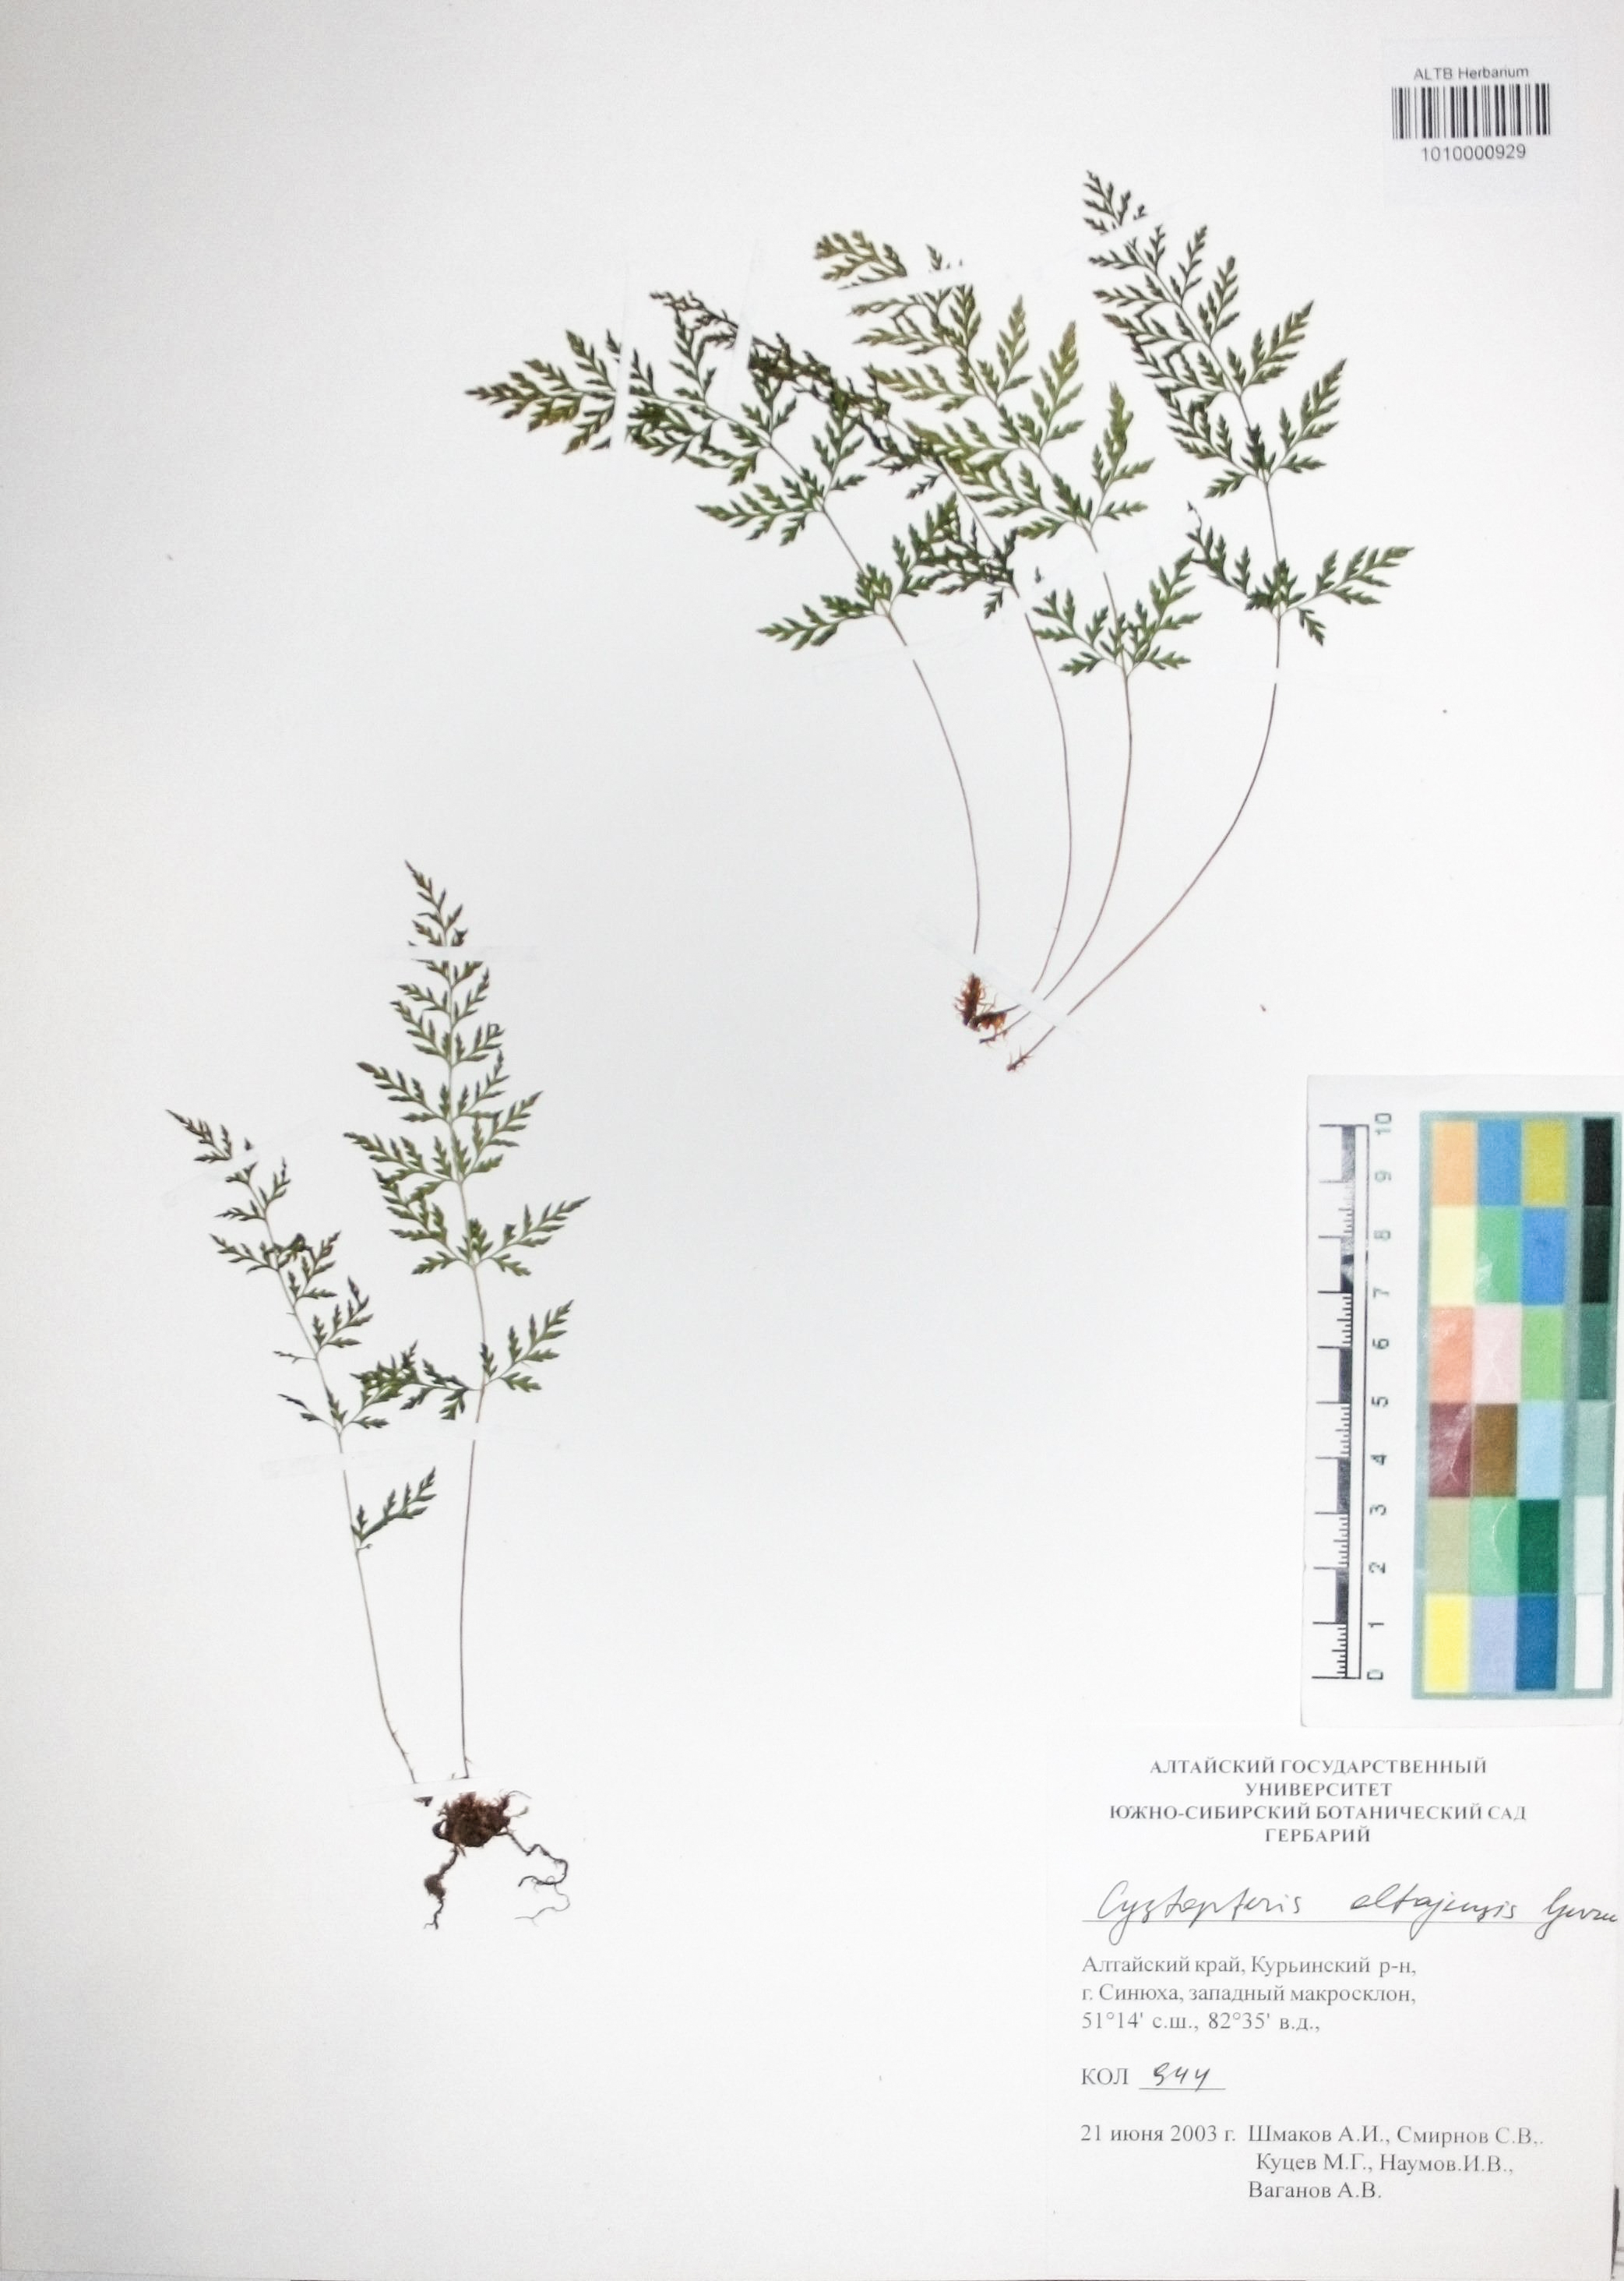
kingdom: Plantae
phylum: Tracheophyta
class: Polypodiopsida
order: Polypodiales
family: Cystopteridaceae
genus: Cystopteris
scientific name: Cystopteris diaphana
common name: Greenish bladder-fern
